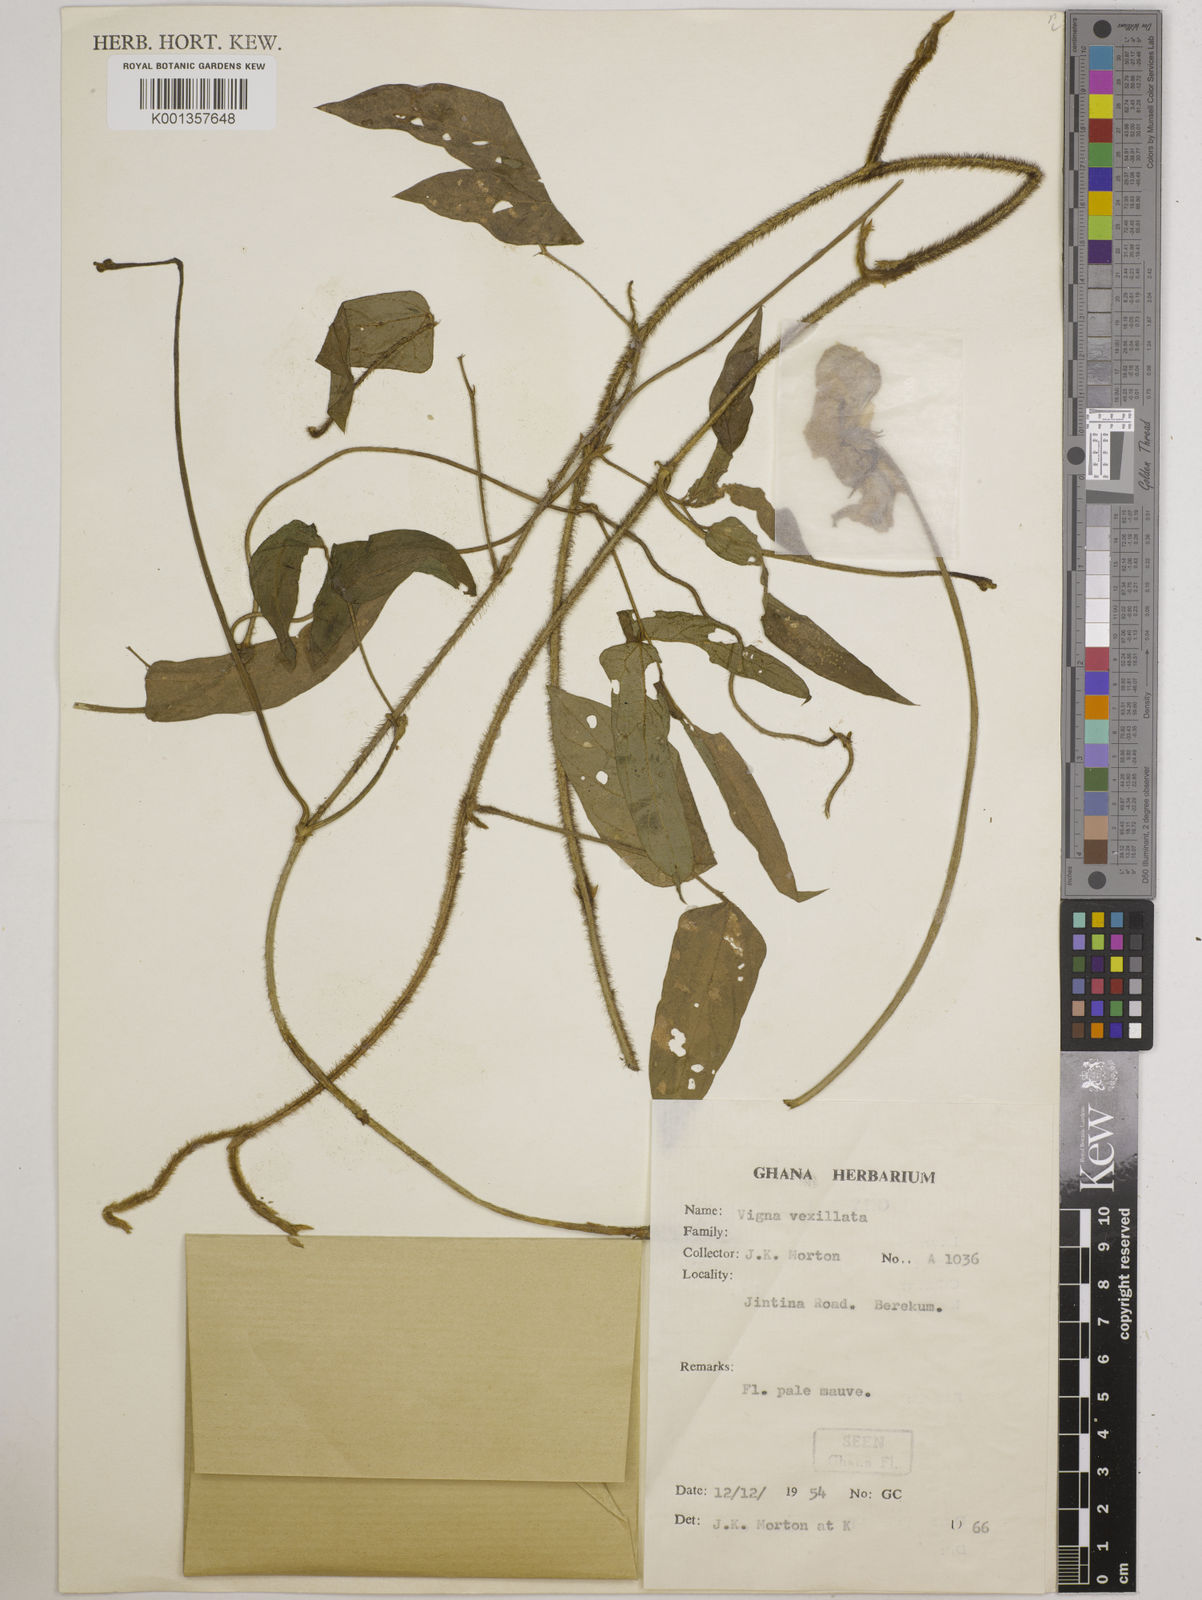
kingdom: Plantae
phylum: Tracheophyta
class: Magnoliopsida
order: Fabales
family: Fabaceae
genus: Vigna
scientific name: Vigna vexillata
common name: Zombi pea
